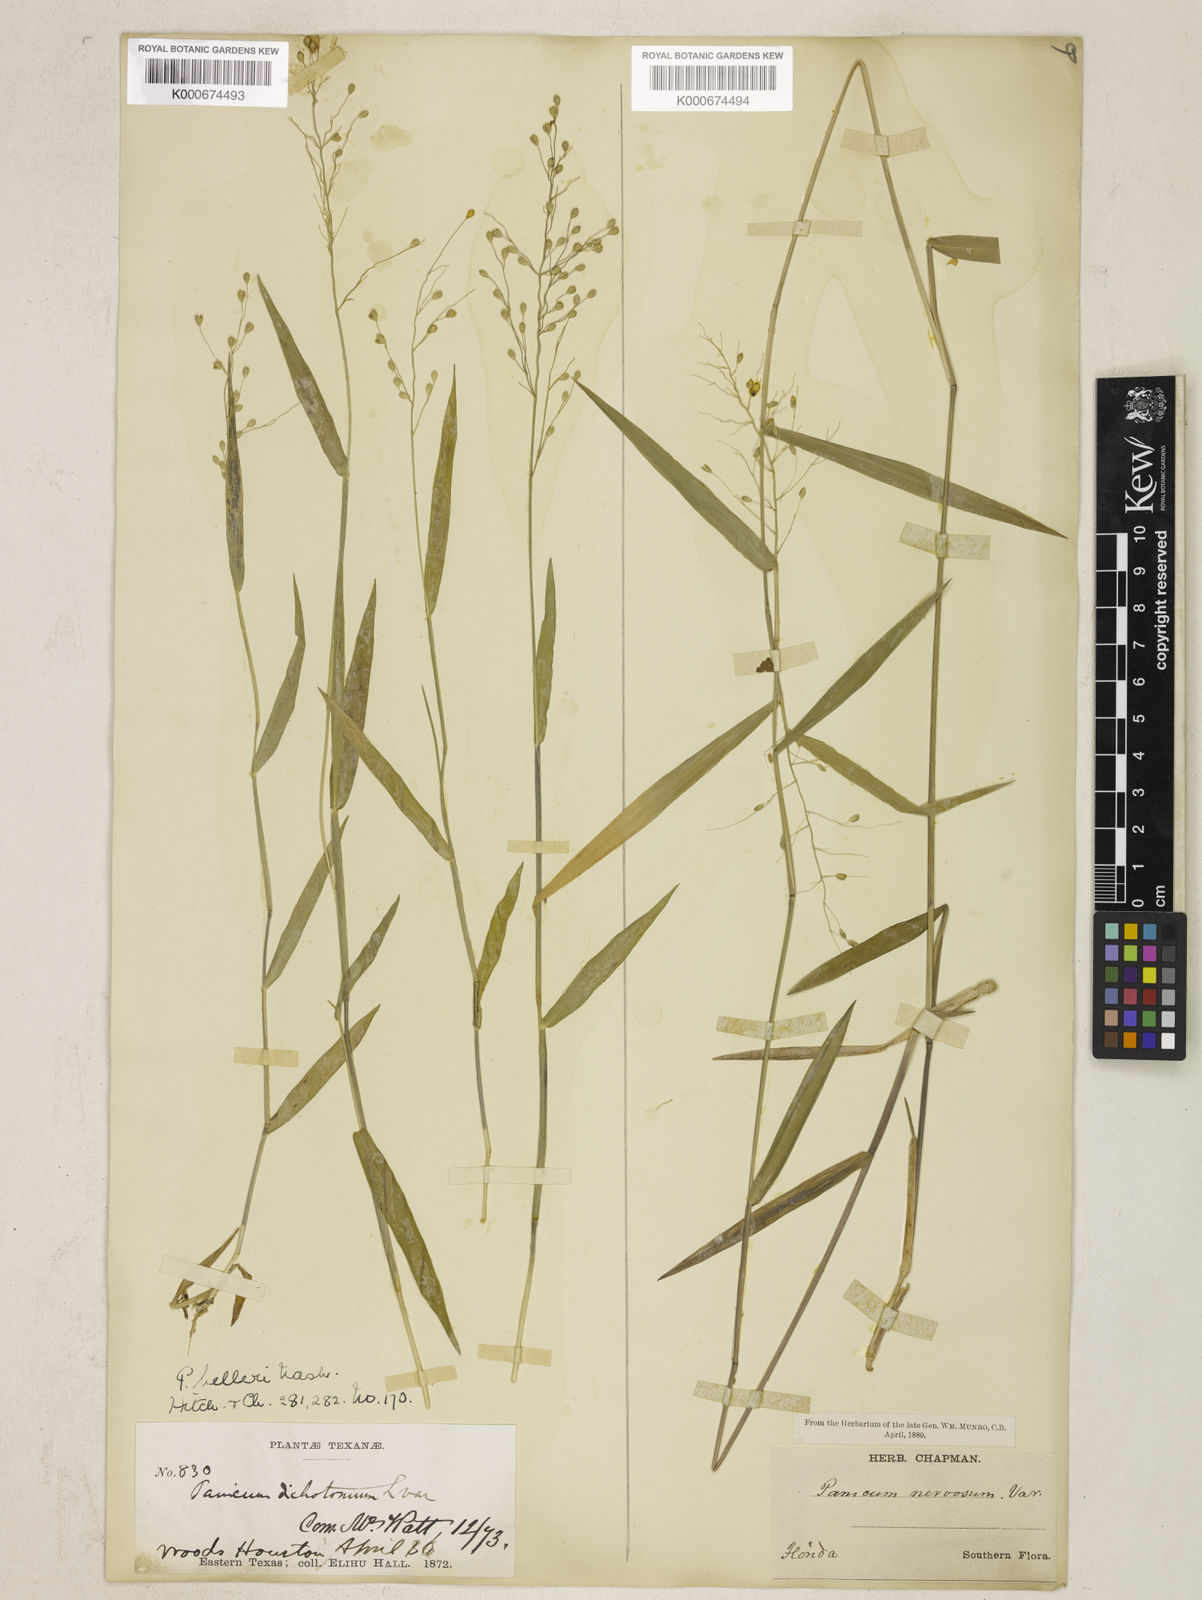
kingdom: Plantae
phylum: Tracheophyta
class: Liliopsida
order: Poales
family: Poaceae
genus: Dichanthelium
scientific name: Dichanthelium oligosanthes
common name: Few-anther obscuregrass
